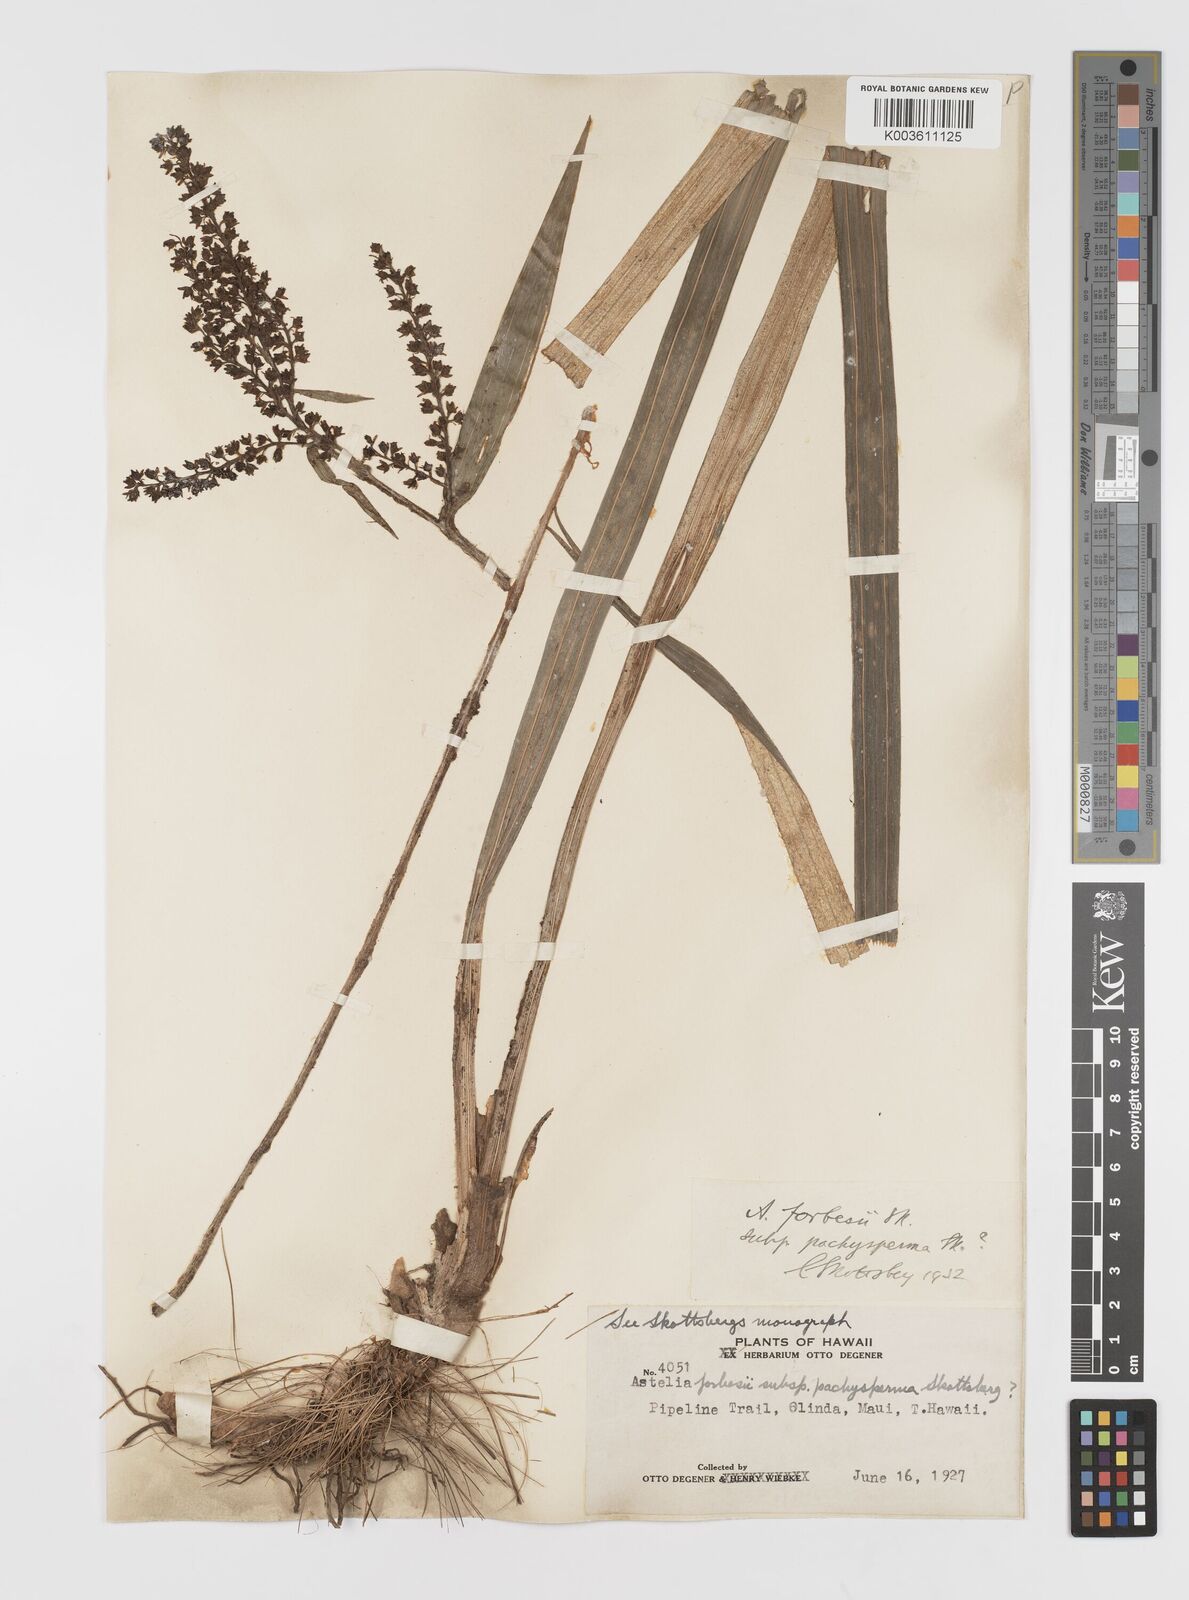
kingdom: Plantae
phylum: Tracheophyta
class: Liliopsida
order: Asparagales
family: Asteliaceae
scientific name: Asteliaceae
